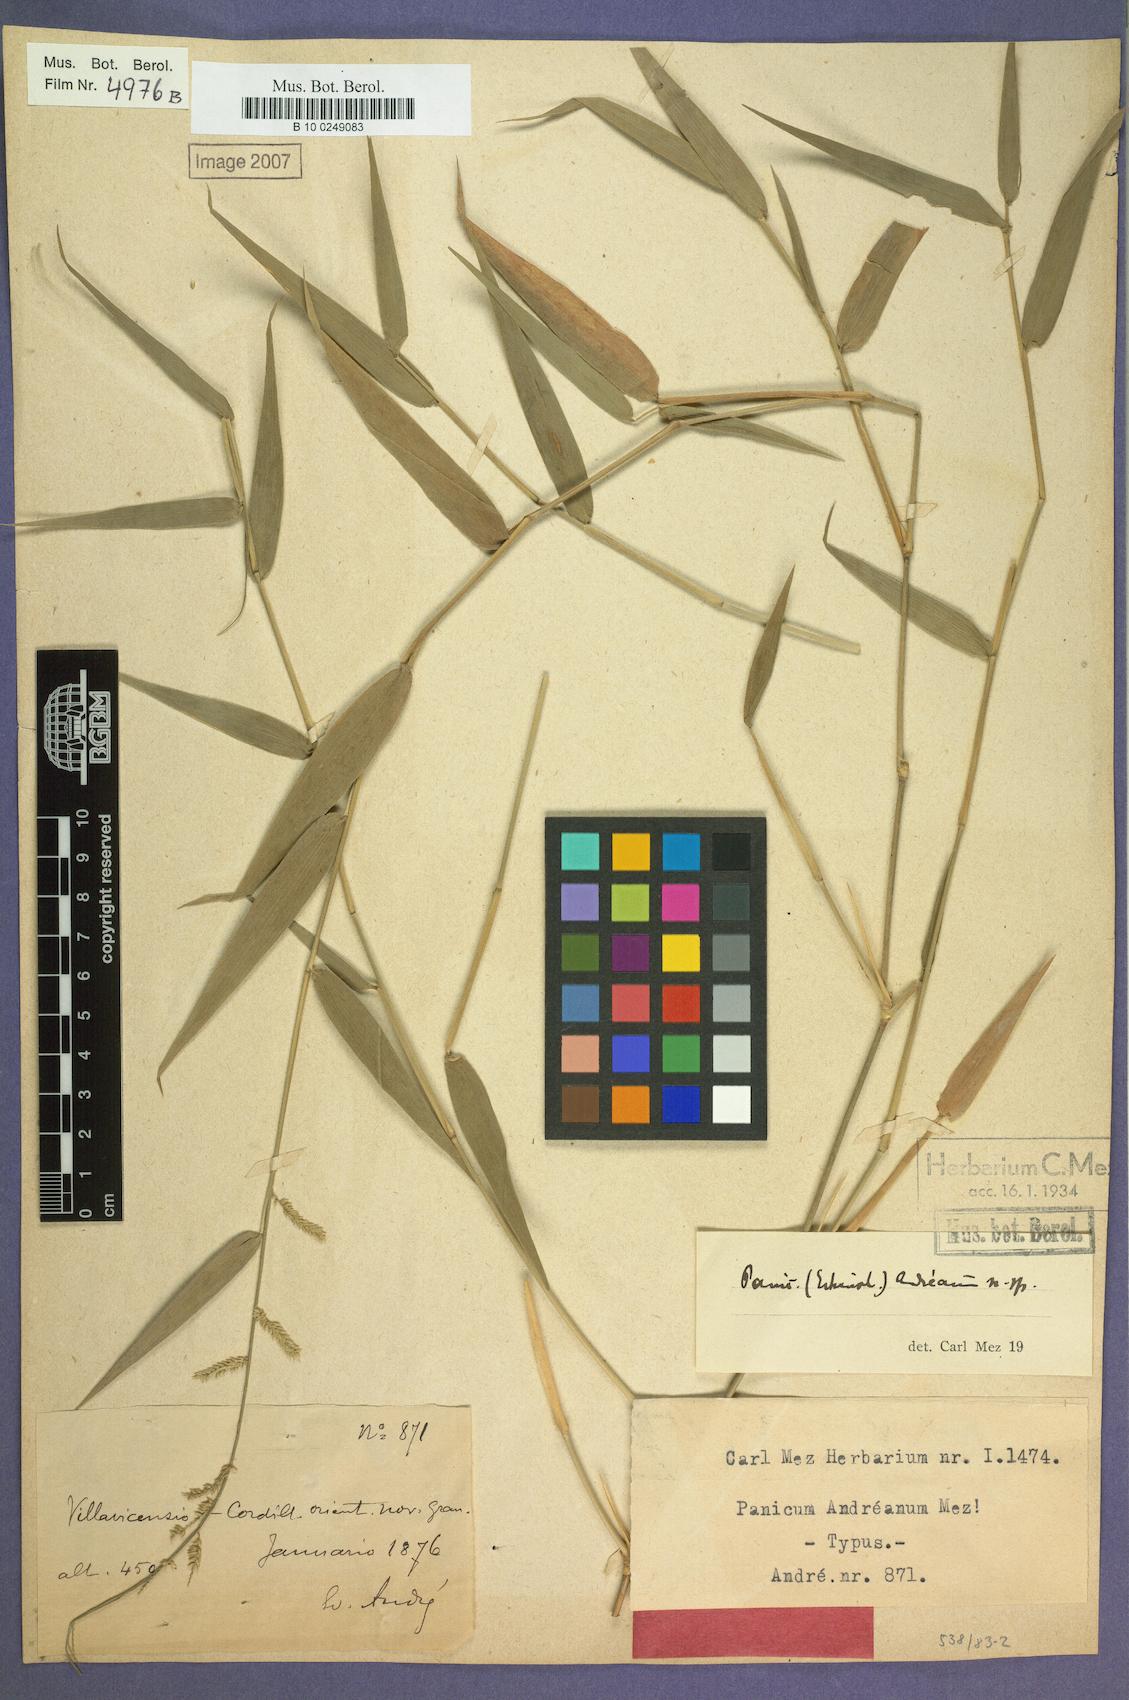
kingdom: Plantae
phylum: Tracheophyta
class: Liliopsida
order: Poales
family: Poaceae
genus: Ocellochloa
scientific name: Ocellochloa andreana
